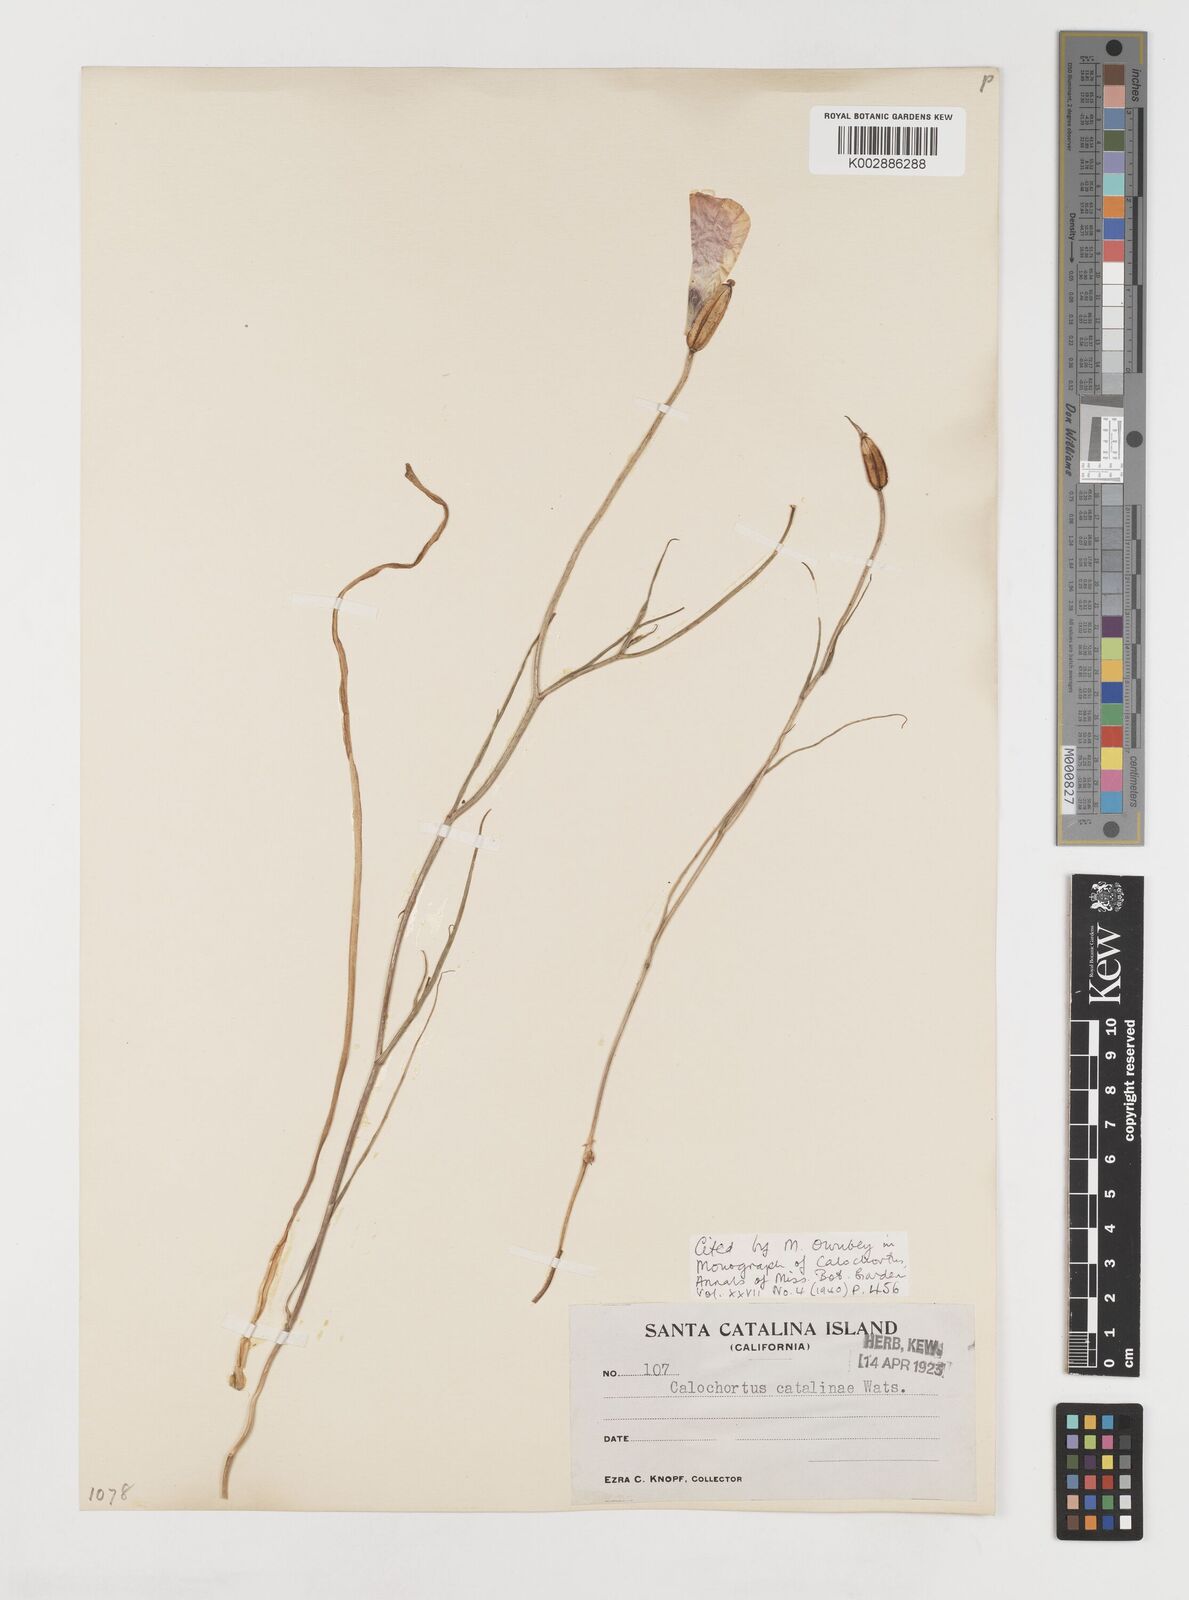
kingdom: Plantae
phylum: Tracheophyta
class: Liliopsida
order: Liliales
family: Liliaceae
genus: Calochortus
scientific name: Calochortus catalinae
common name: Catalina mariposa-lily
